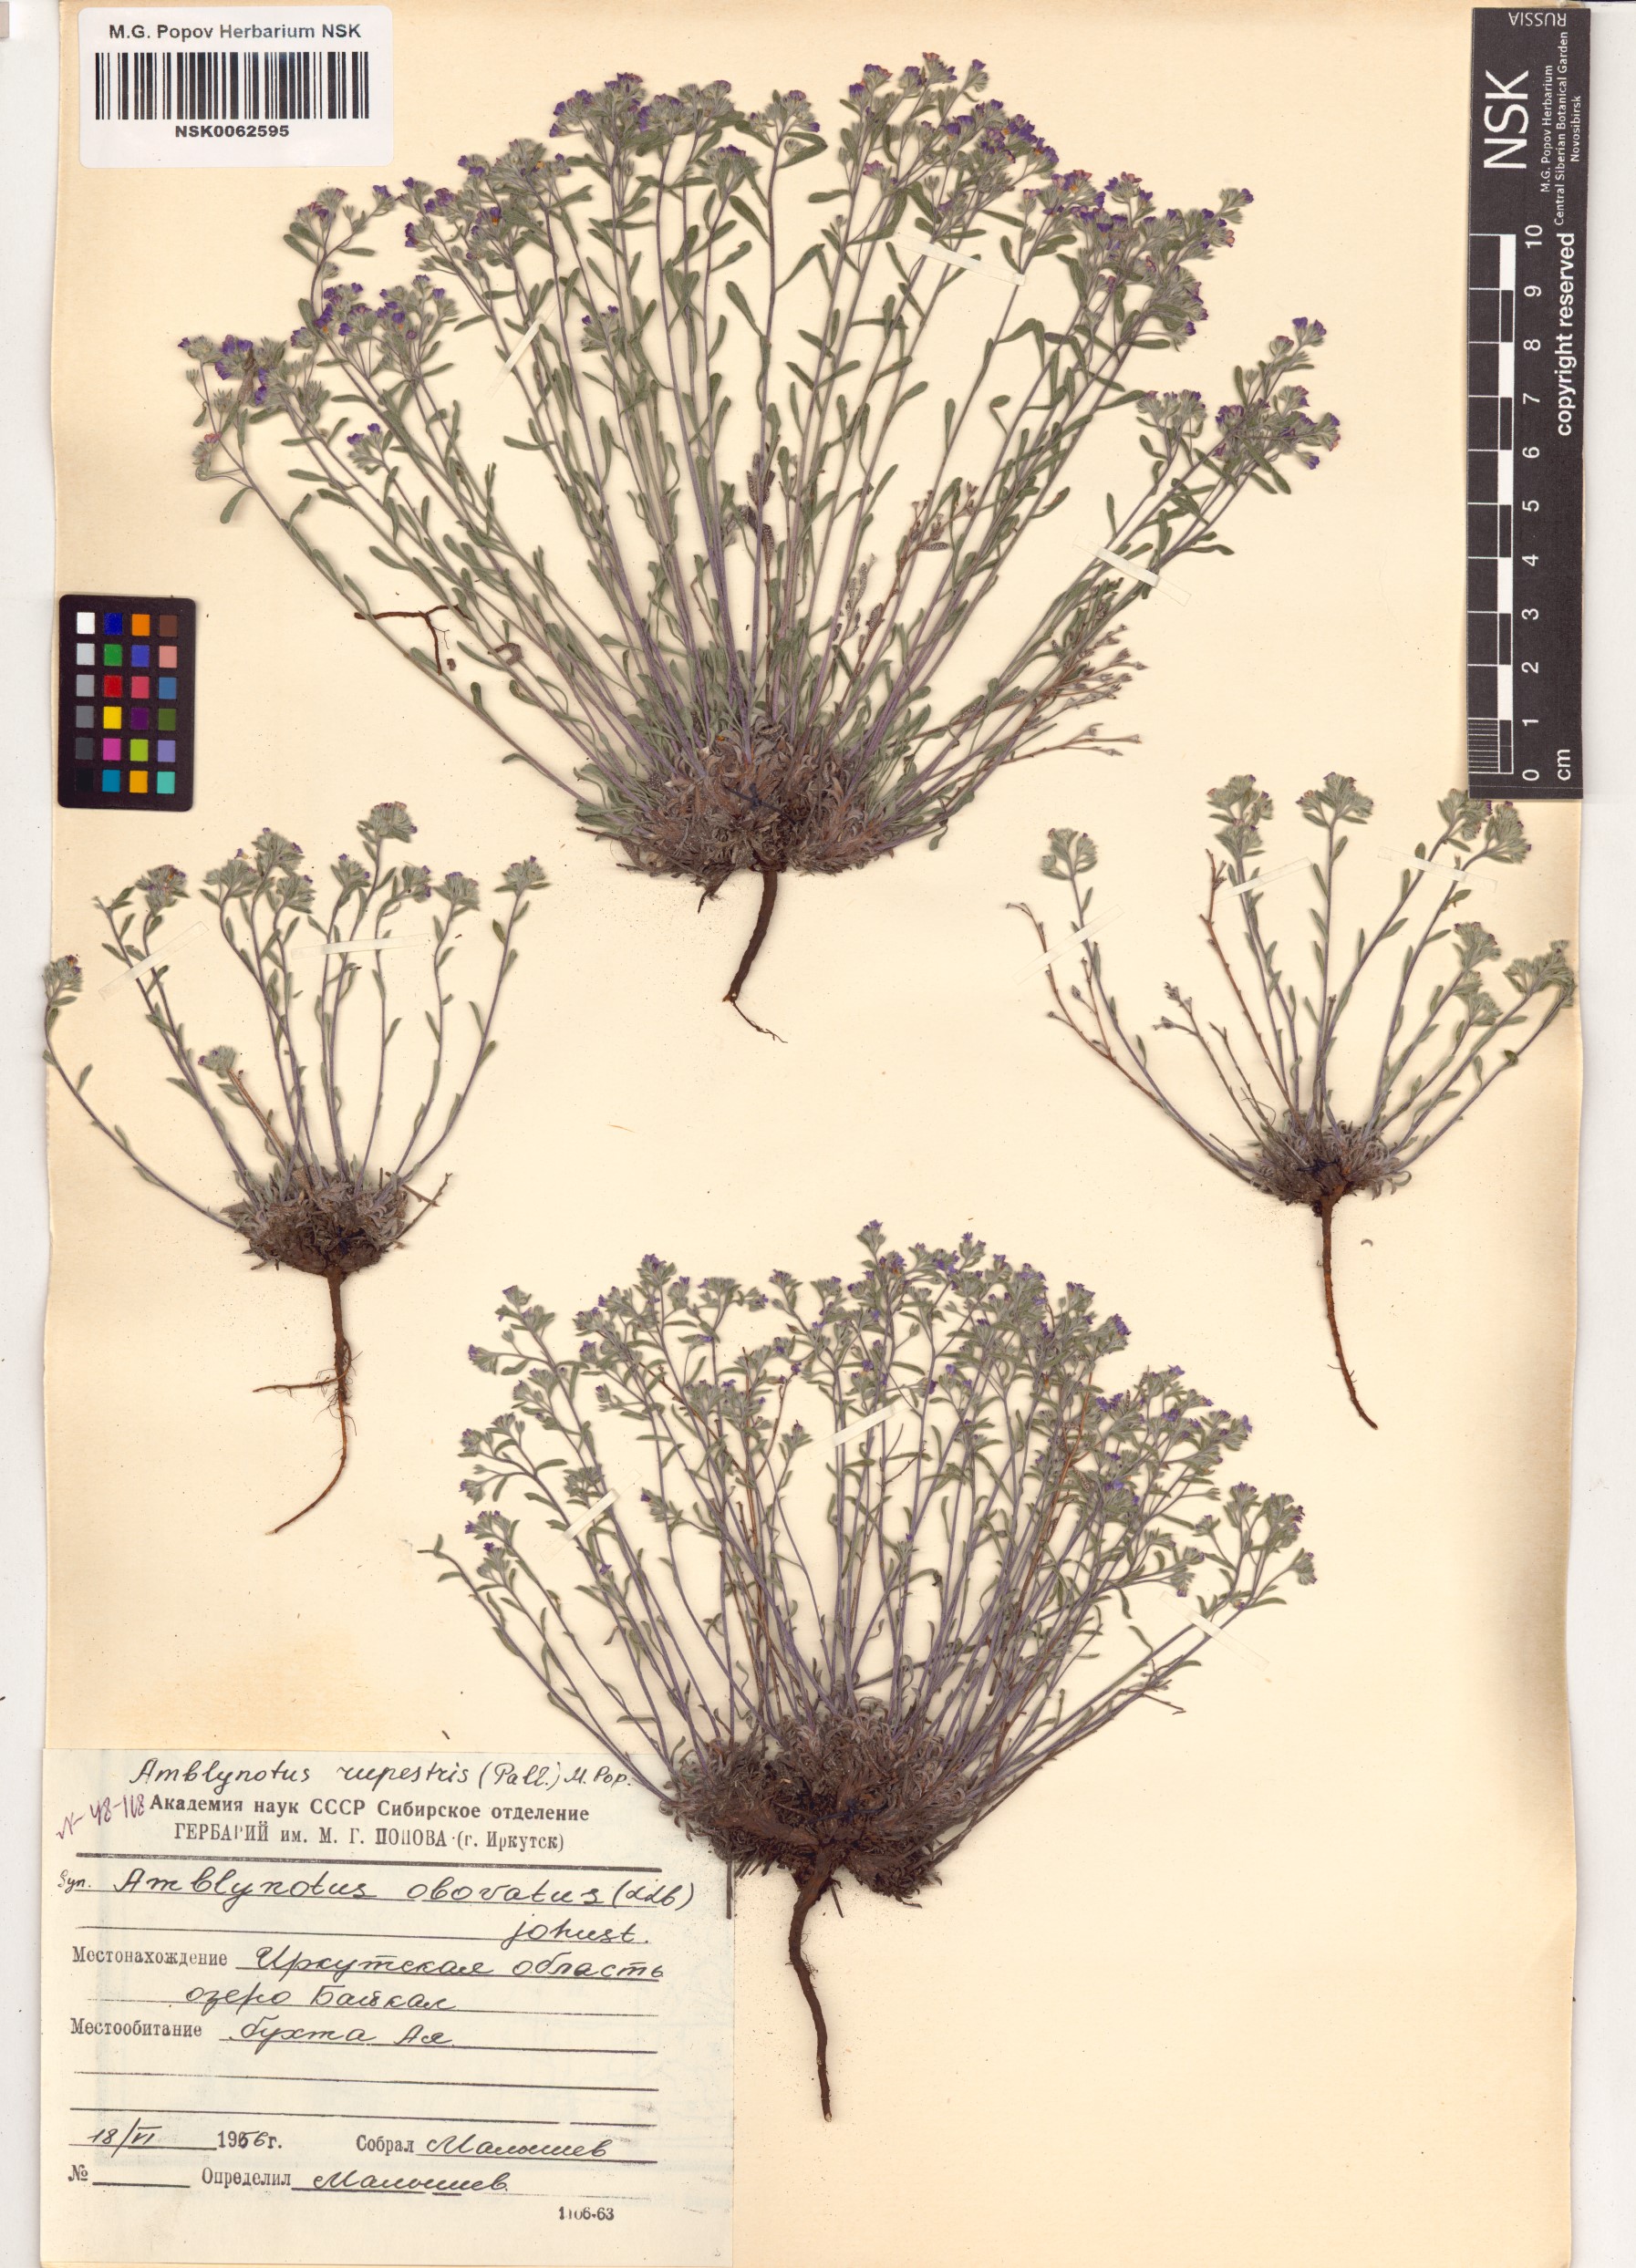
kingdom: Plantae
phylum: Tracheophyta
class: Magnoliopsida
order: Boraginales
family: Boraginaceae
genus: Eritrichium
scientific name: Eritrichium rupestre
